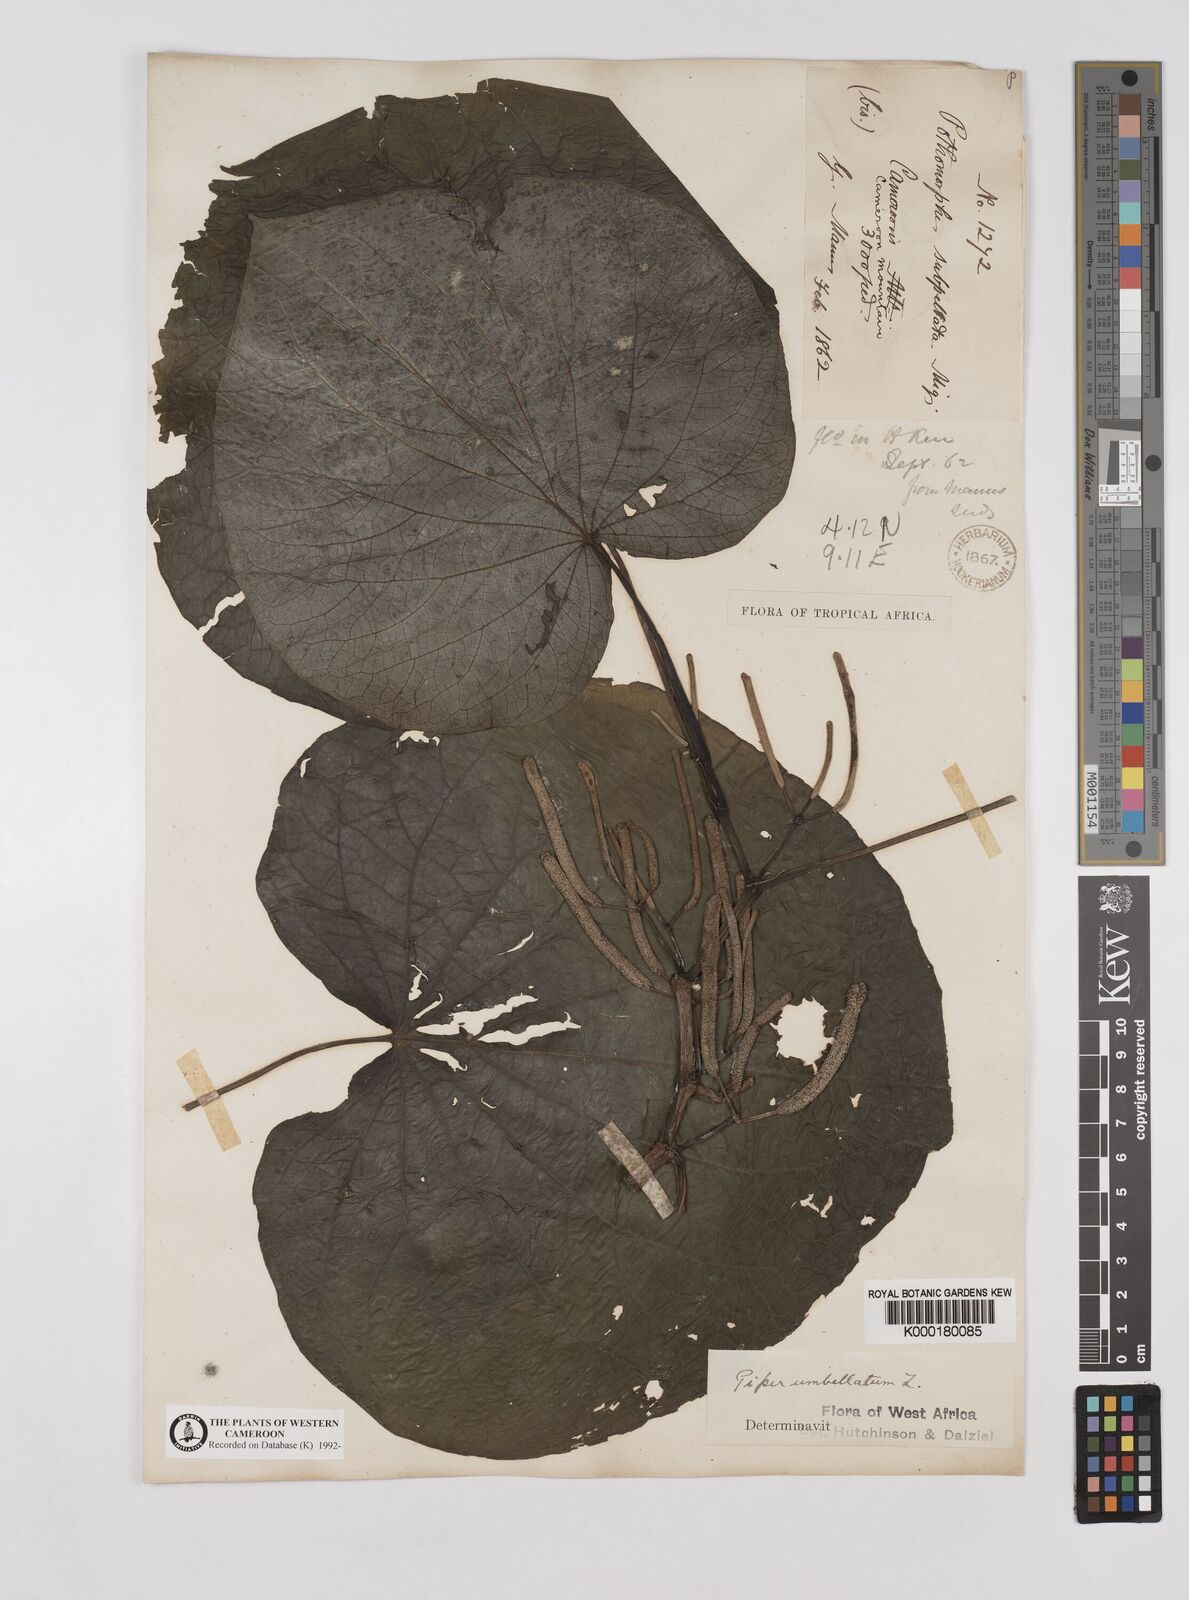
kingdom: Plantae
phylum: Tracheophyta
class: Magnoliopsida
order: Piperales
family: Piperaceae
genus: Piper
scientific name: Piper umbellatum
